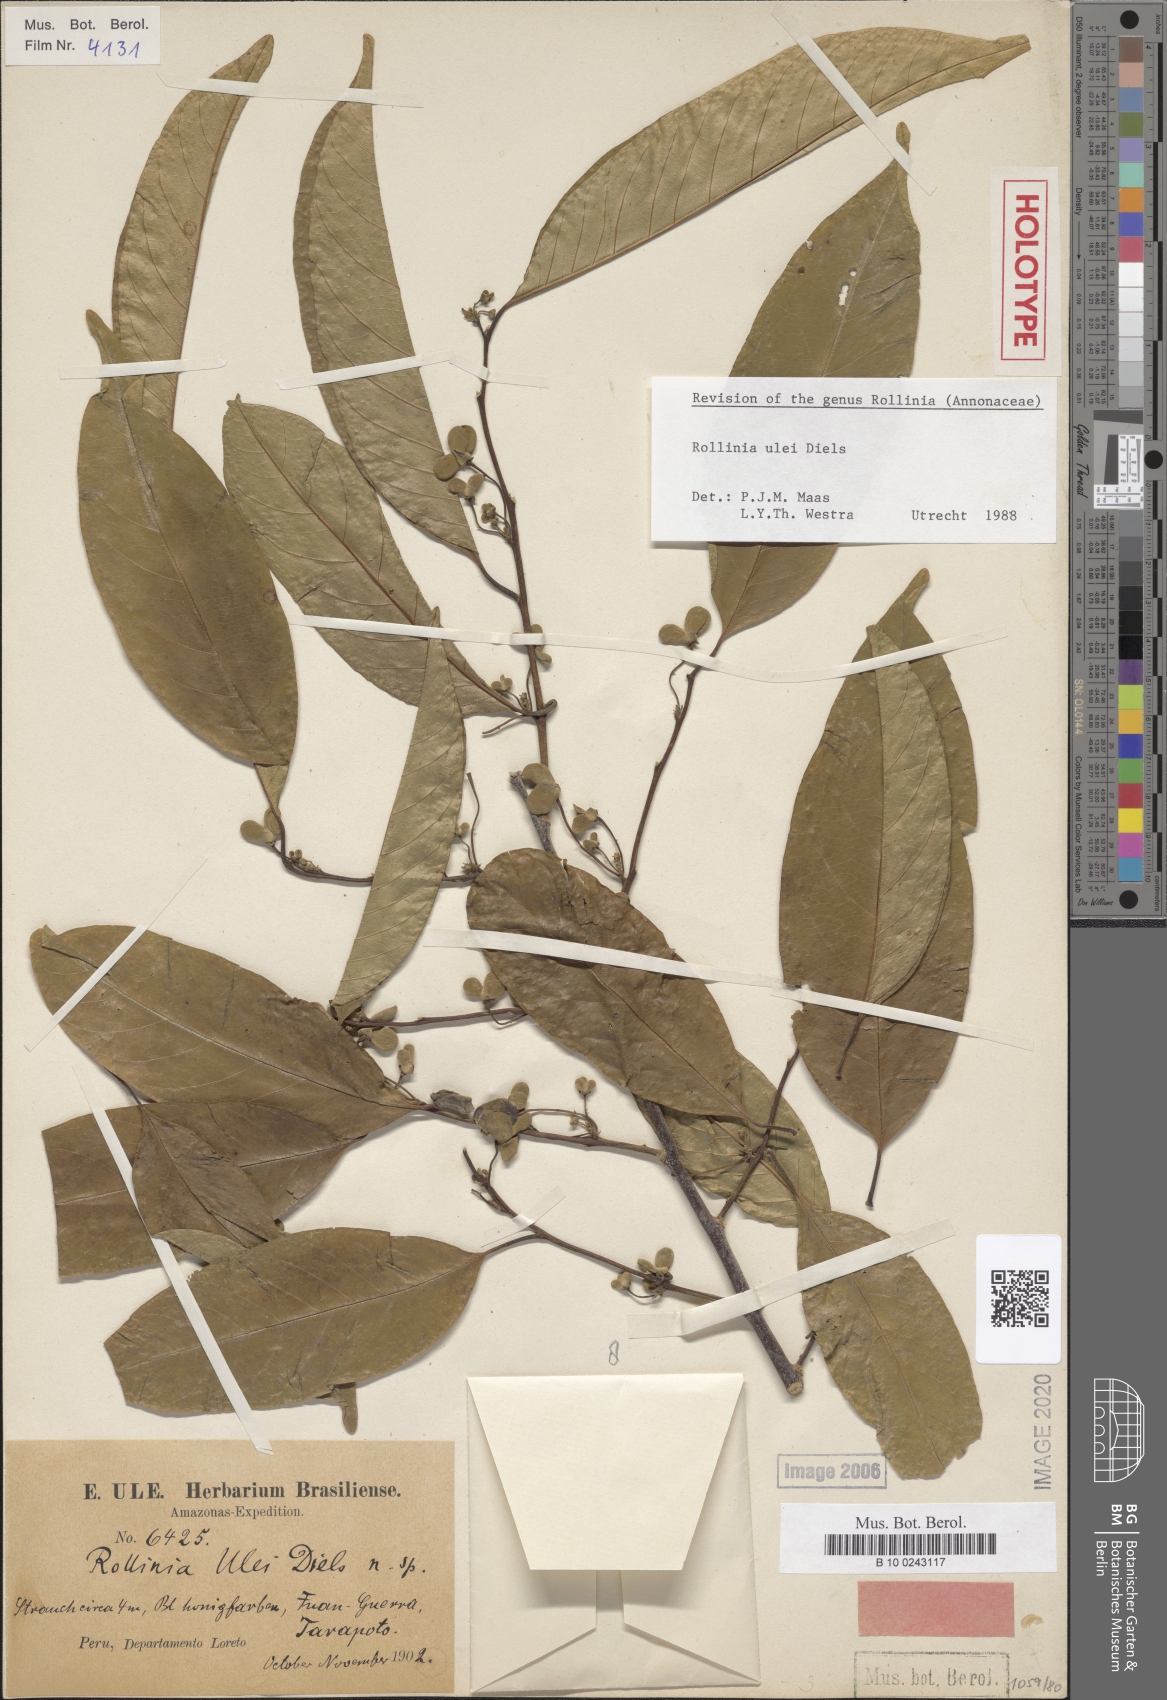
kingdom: Plantae
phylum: Tracheophyta
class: Magnoliopsida
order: Magnoliales
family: Annonaceae
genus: Annona
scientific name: Annona neoulei
